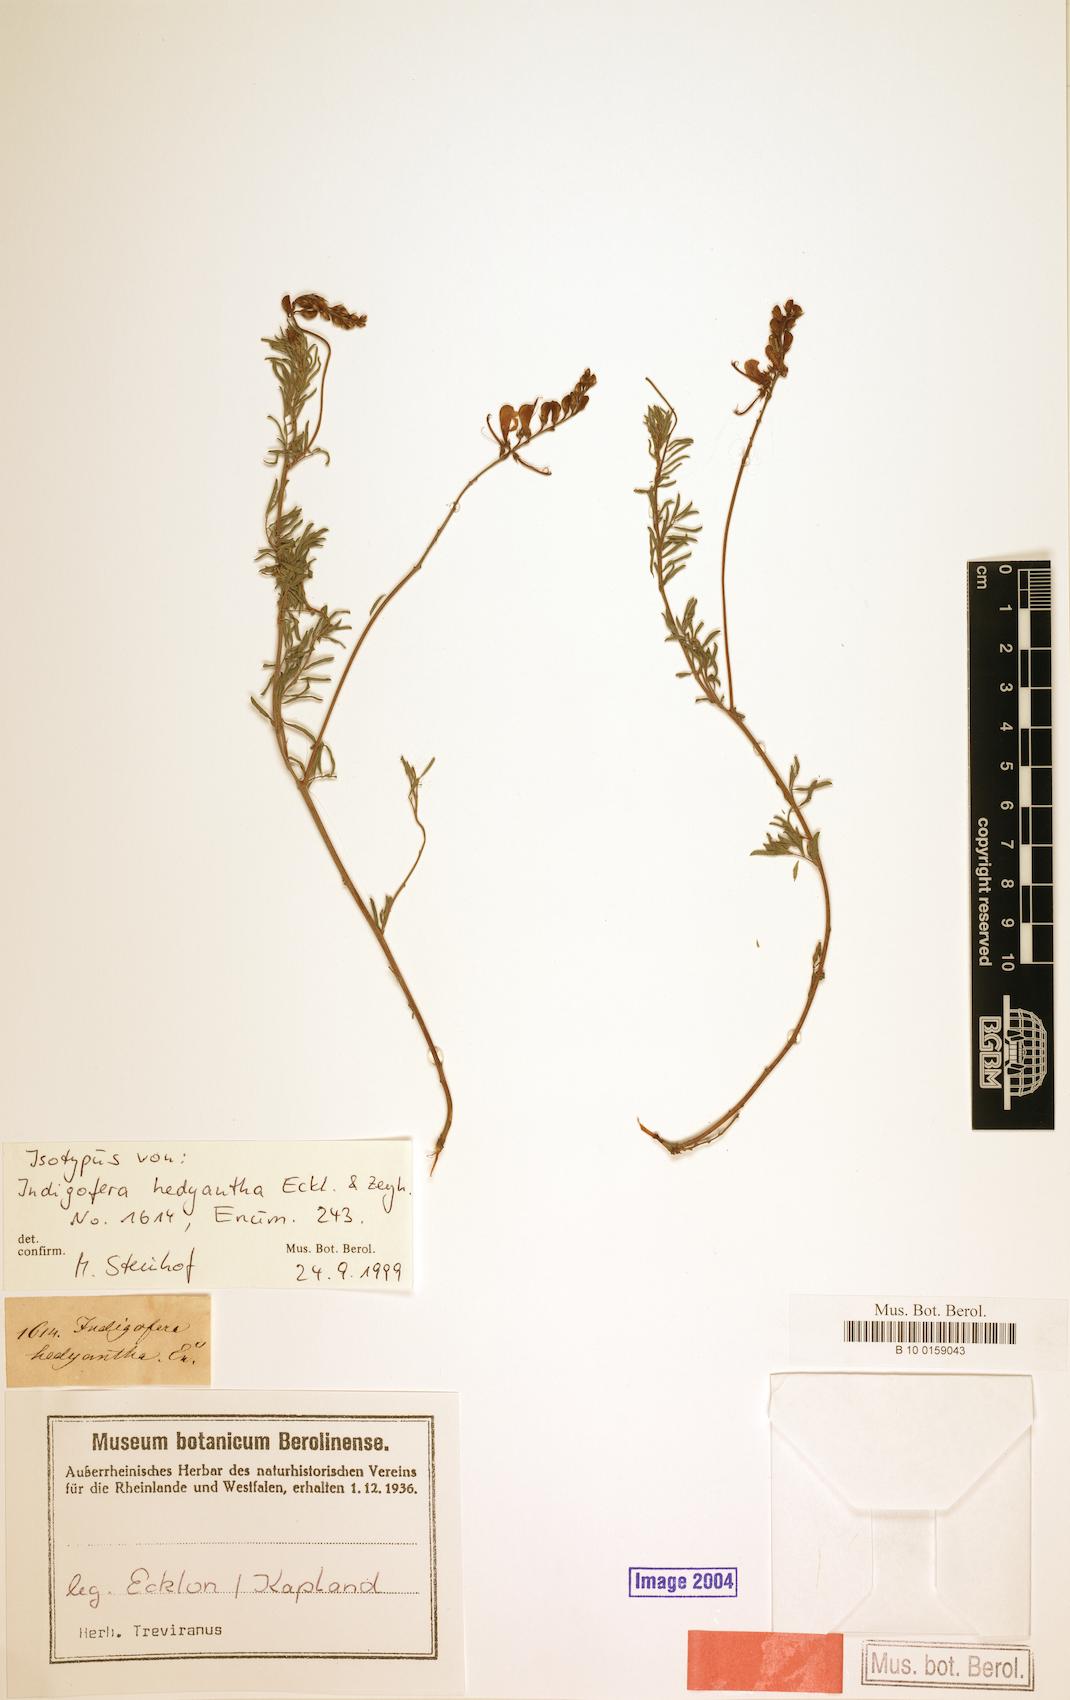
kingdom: Plantae
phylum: Tracheophyta
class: Magnoliopsida
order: Fabales
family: Fabaceae
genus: Indigofera
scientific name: Indigofera hedyantha
